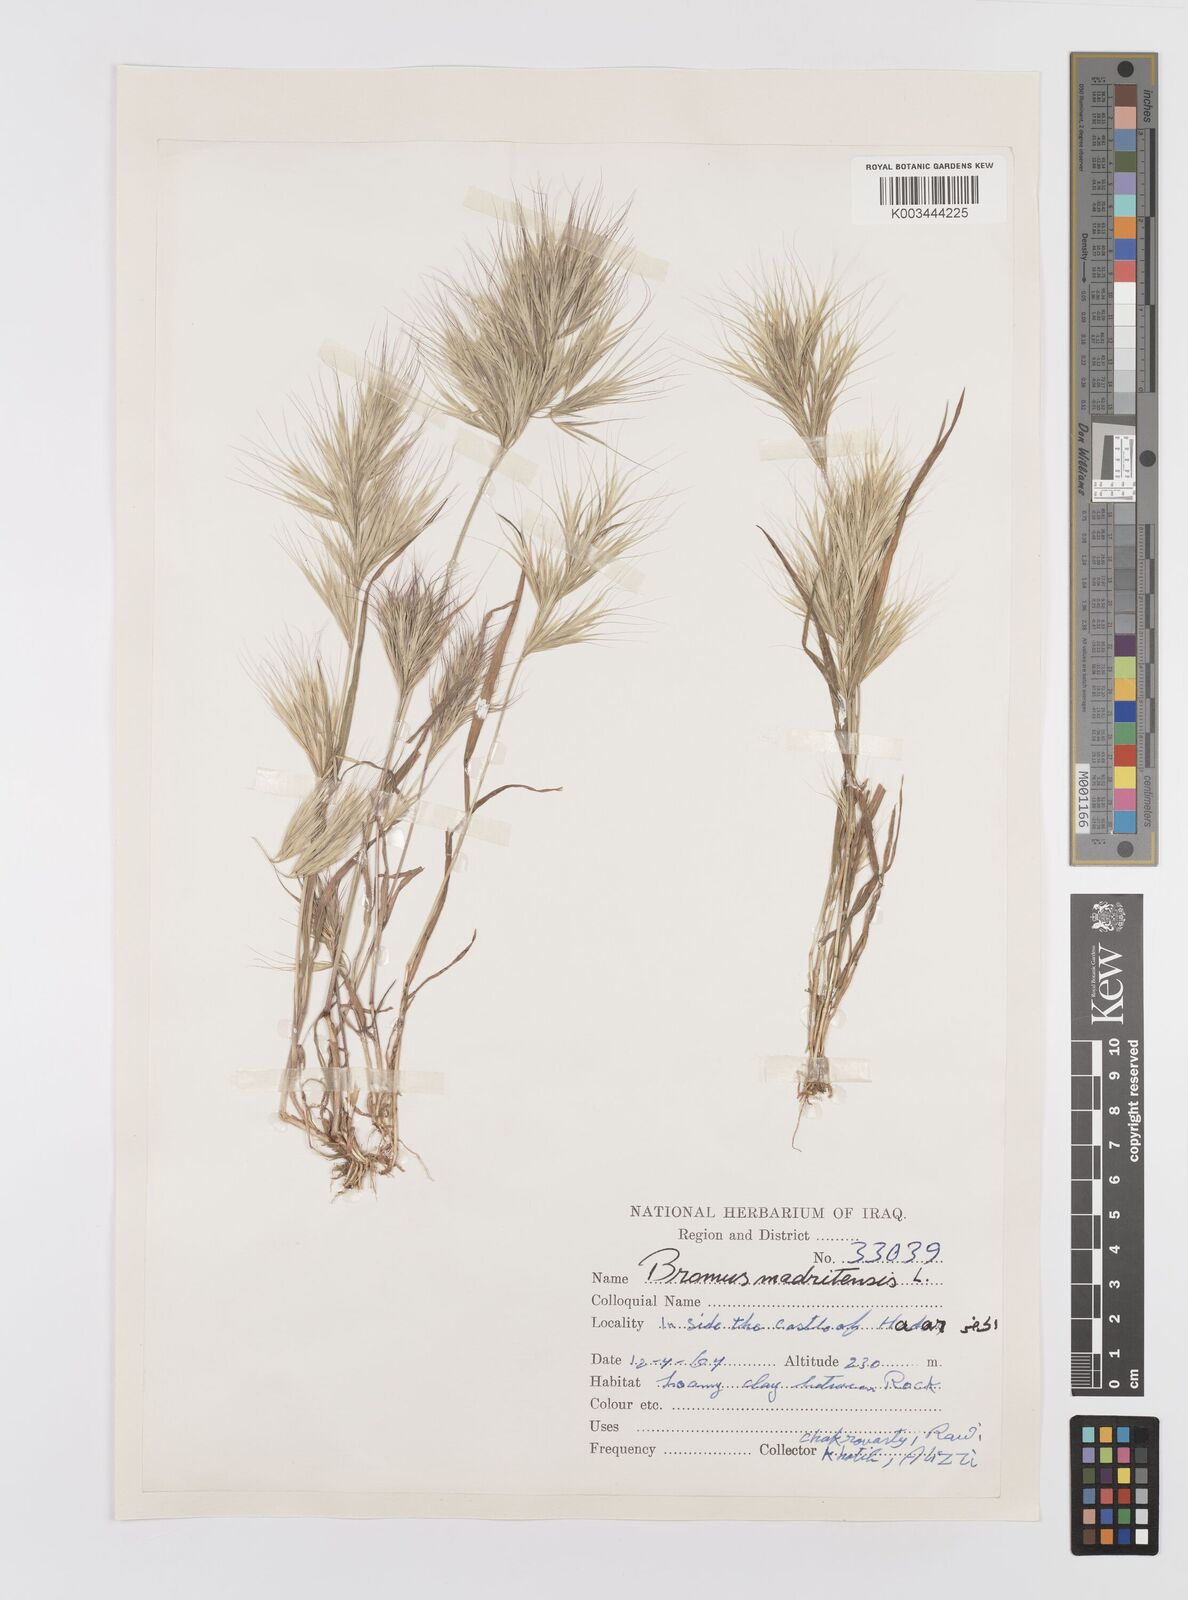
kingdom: Plantae
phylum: Tracheophyta
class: Liliopsida
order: Poales
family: Poaceae
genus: Bromus
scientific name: Bromus madritensis
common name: Compact brome
